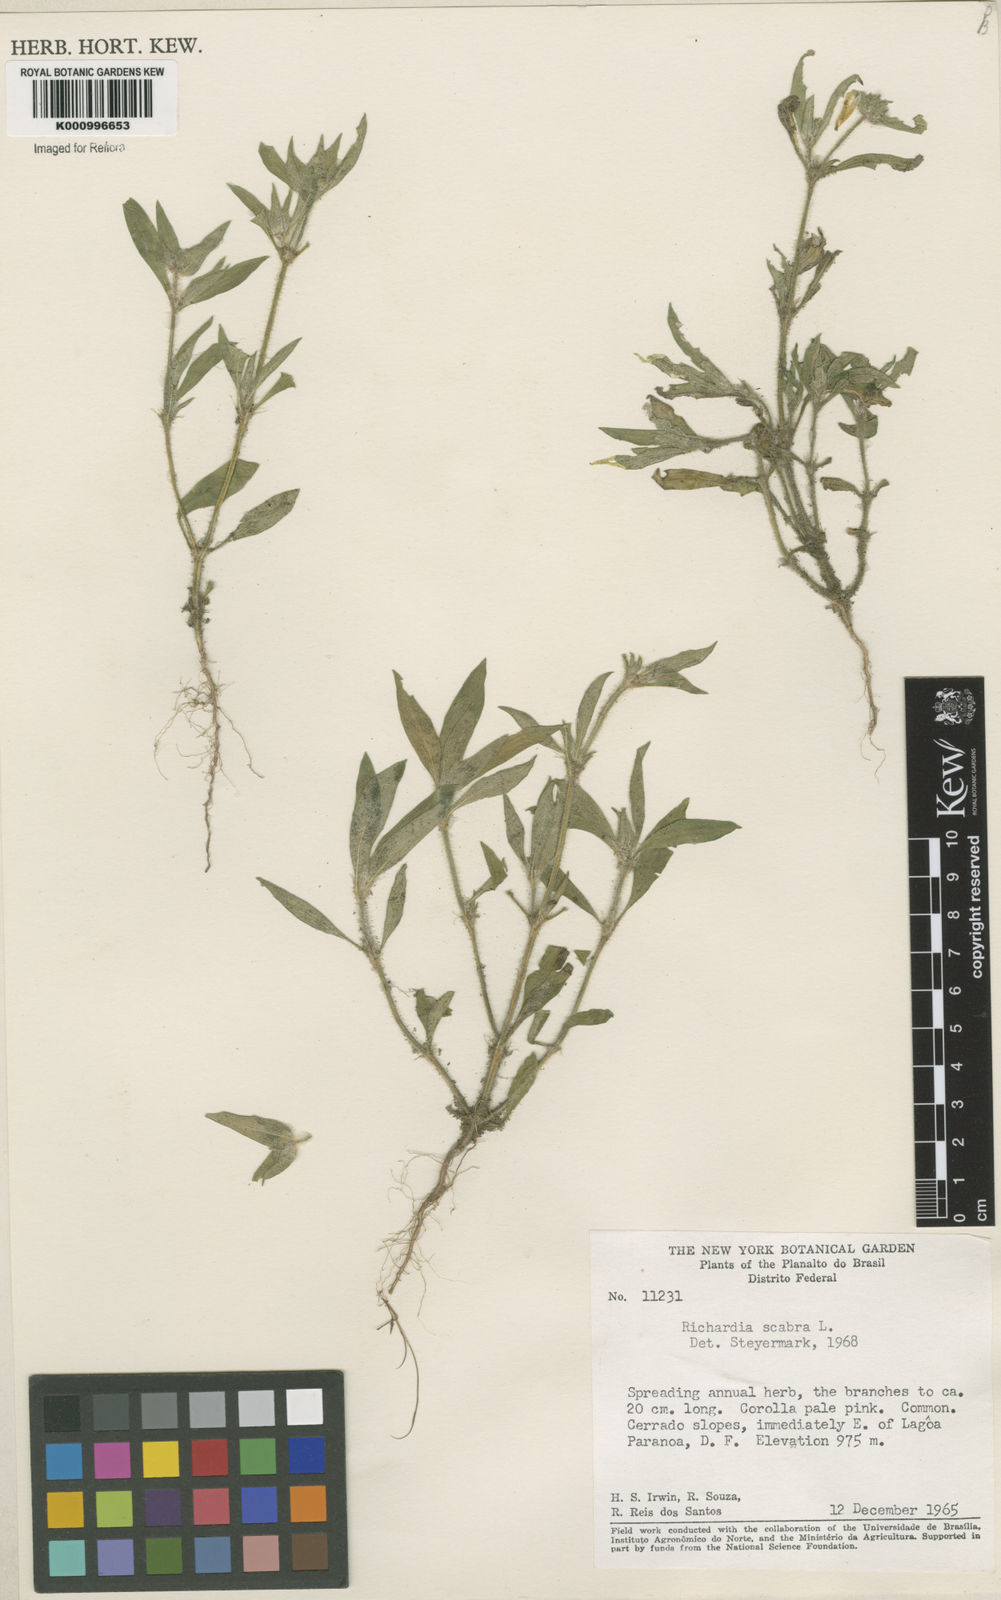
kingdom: Plantae
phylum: Tracheophyta
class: Magnoliopsida
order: Gentianales
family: Rubiaceae
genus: Richardia
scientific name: Richardia scabra
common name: Rough mexican clover
